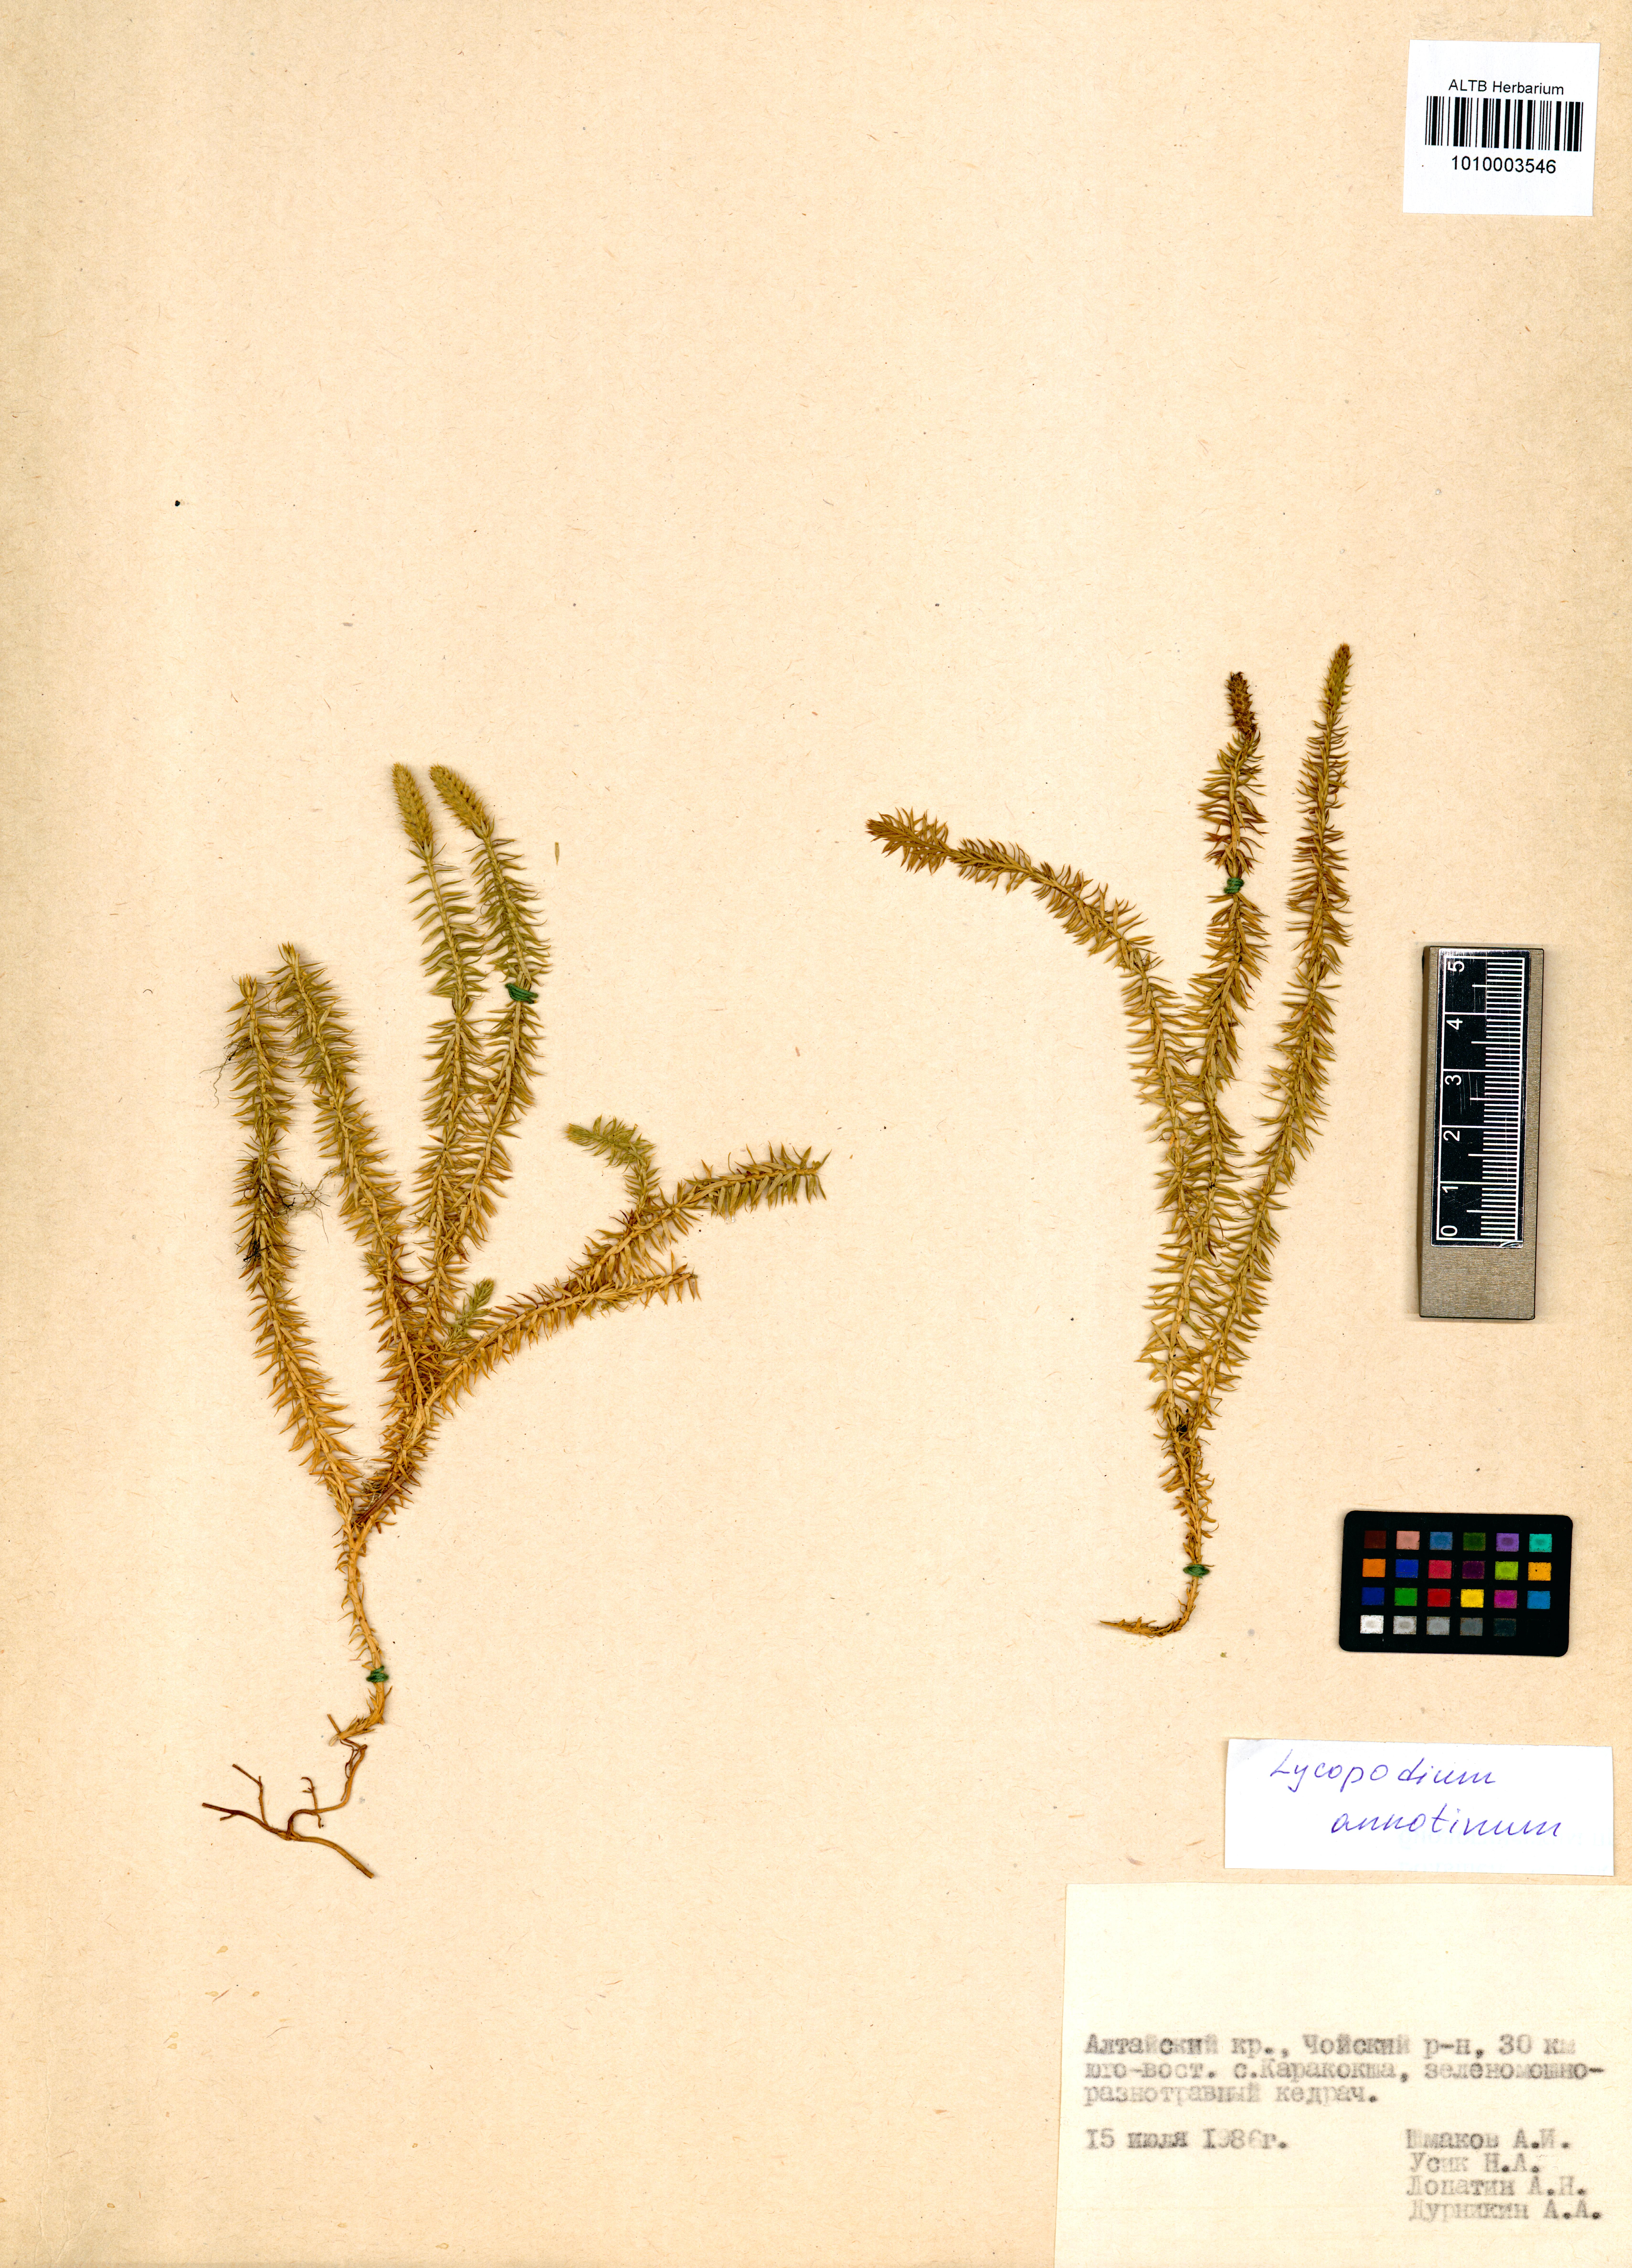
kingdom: Plantae
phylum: Tracheophyta
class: Lycopodiopsida
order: Lycopodiales
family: Lycopodiaceae
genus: Spinulum
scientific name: Spinulum annotinum
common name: Interrupted club-moss
